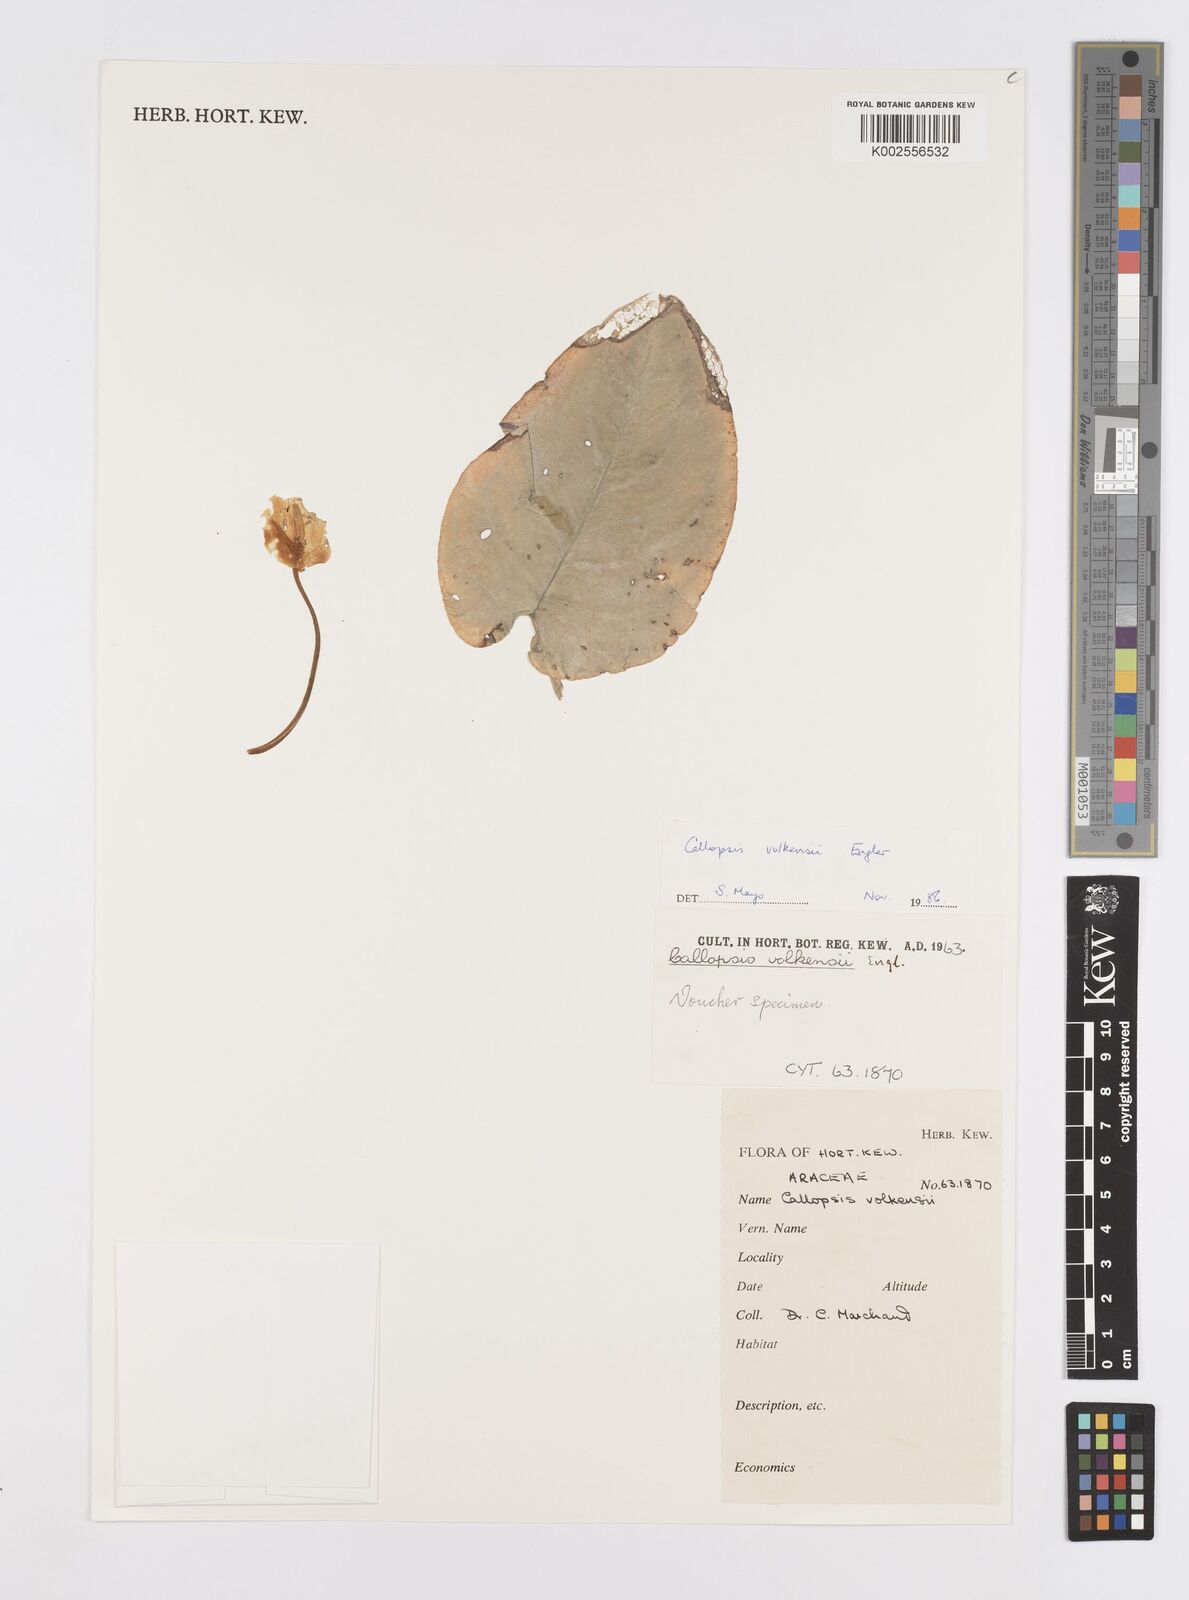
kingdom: Plantae
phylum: Tracheophyta
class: Liliopsida
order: Alismatales
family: Araceae
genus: Callopsis
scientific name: Callopsis volkensii
